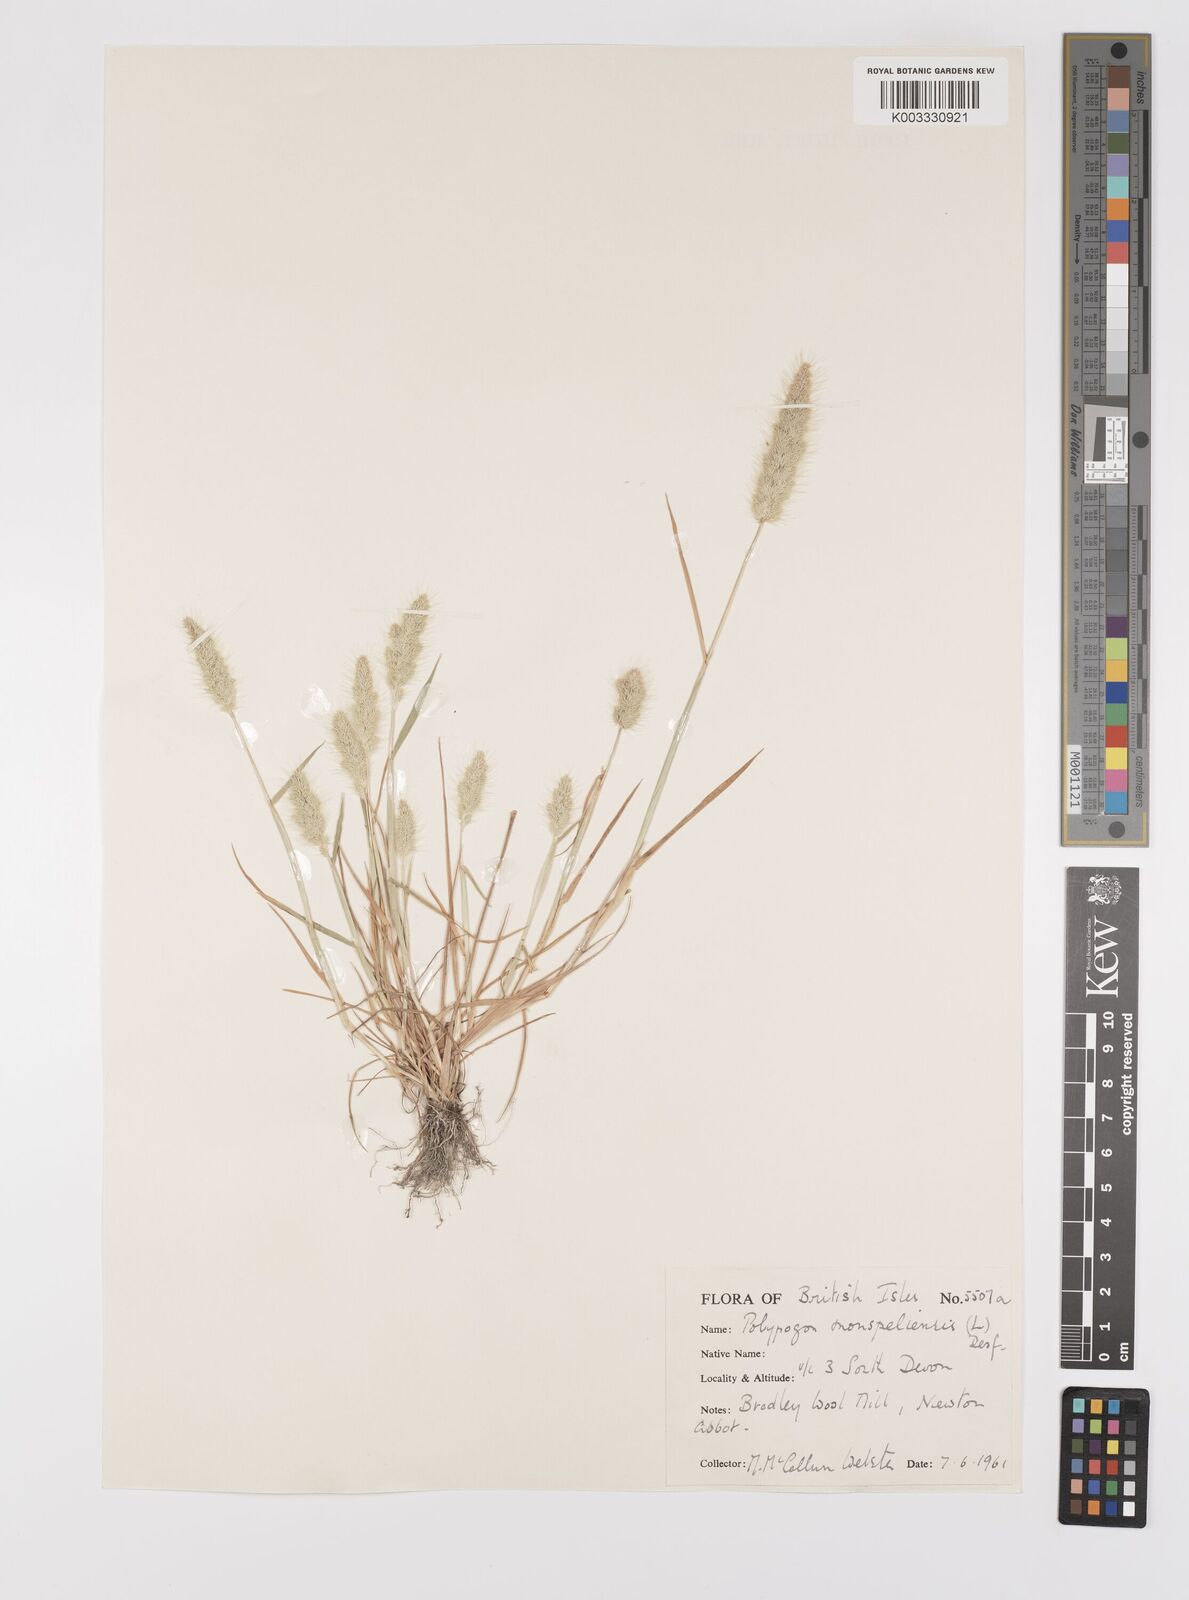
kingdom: Plantae
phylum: Tracheophyta
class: Liliopsida
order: Poales
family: Poaceae
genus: Polypogon
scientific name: Polypogon monspeliensis
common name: Annual rabbitsfoot grass
